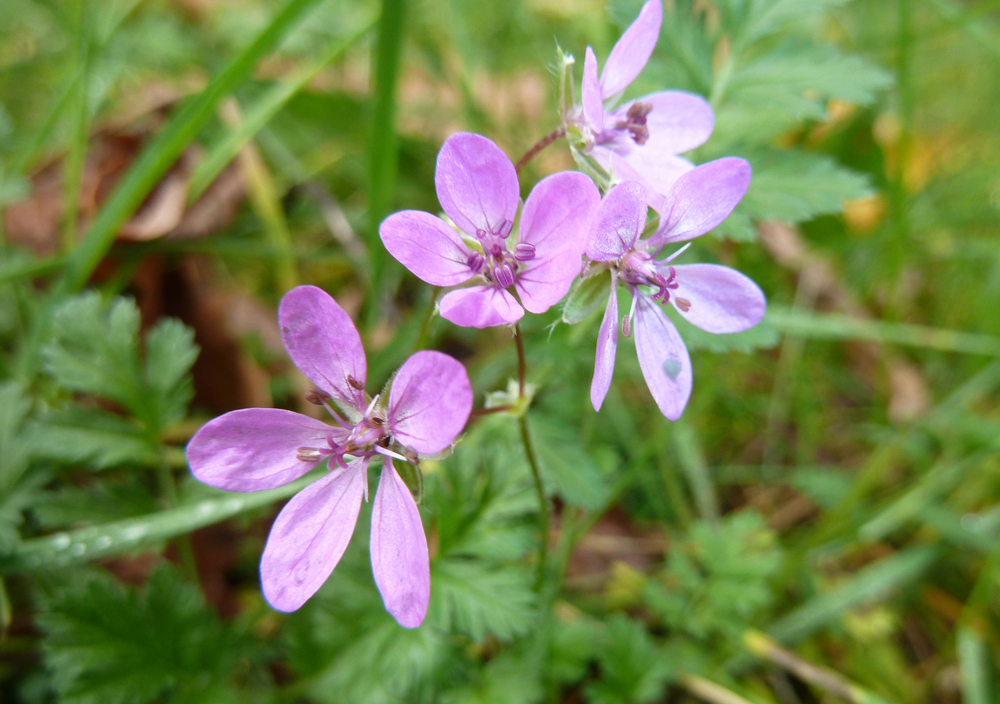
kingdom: Plantae
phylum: Tracheophyta
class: Magnoliopsida
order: Geraniales
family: Geraniaceae
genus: Erodium
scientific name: Erodium cicutarium
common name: Common stork's-bill
